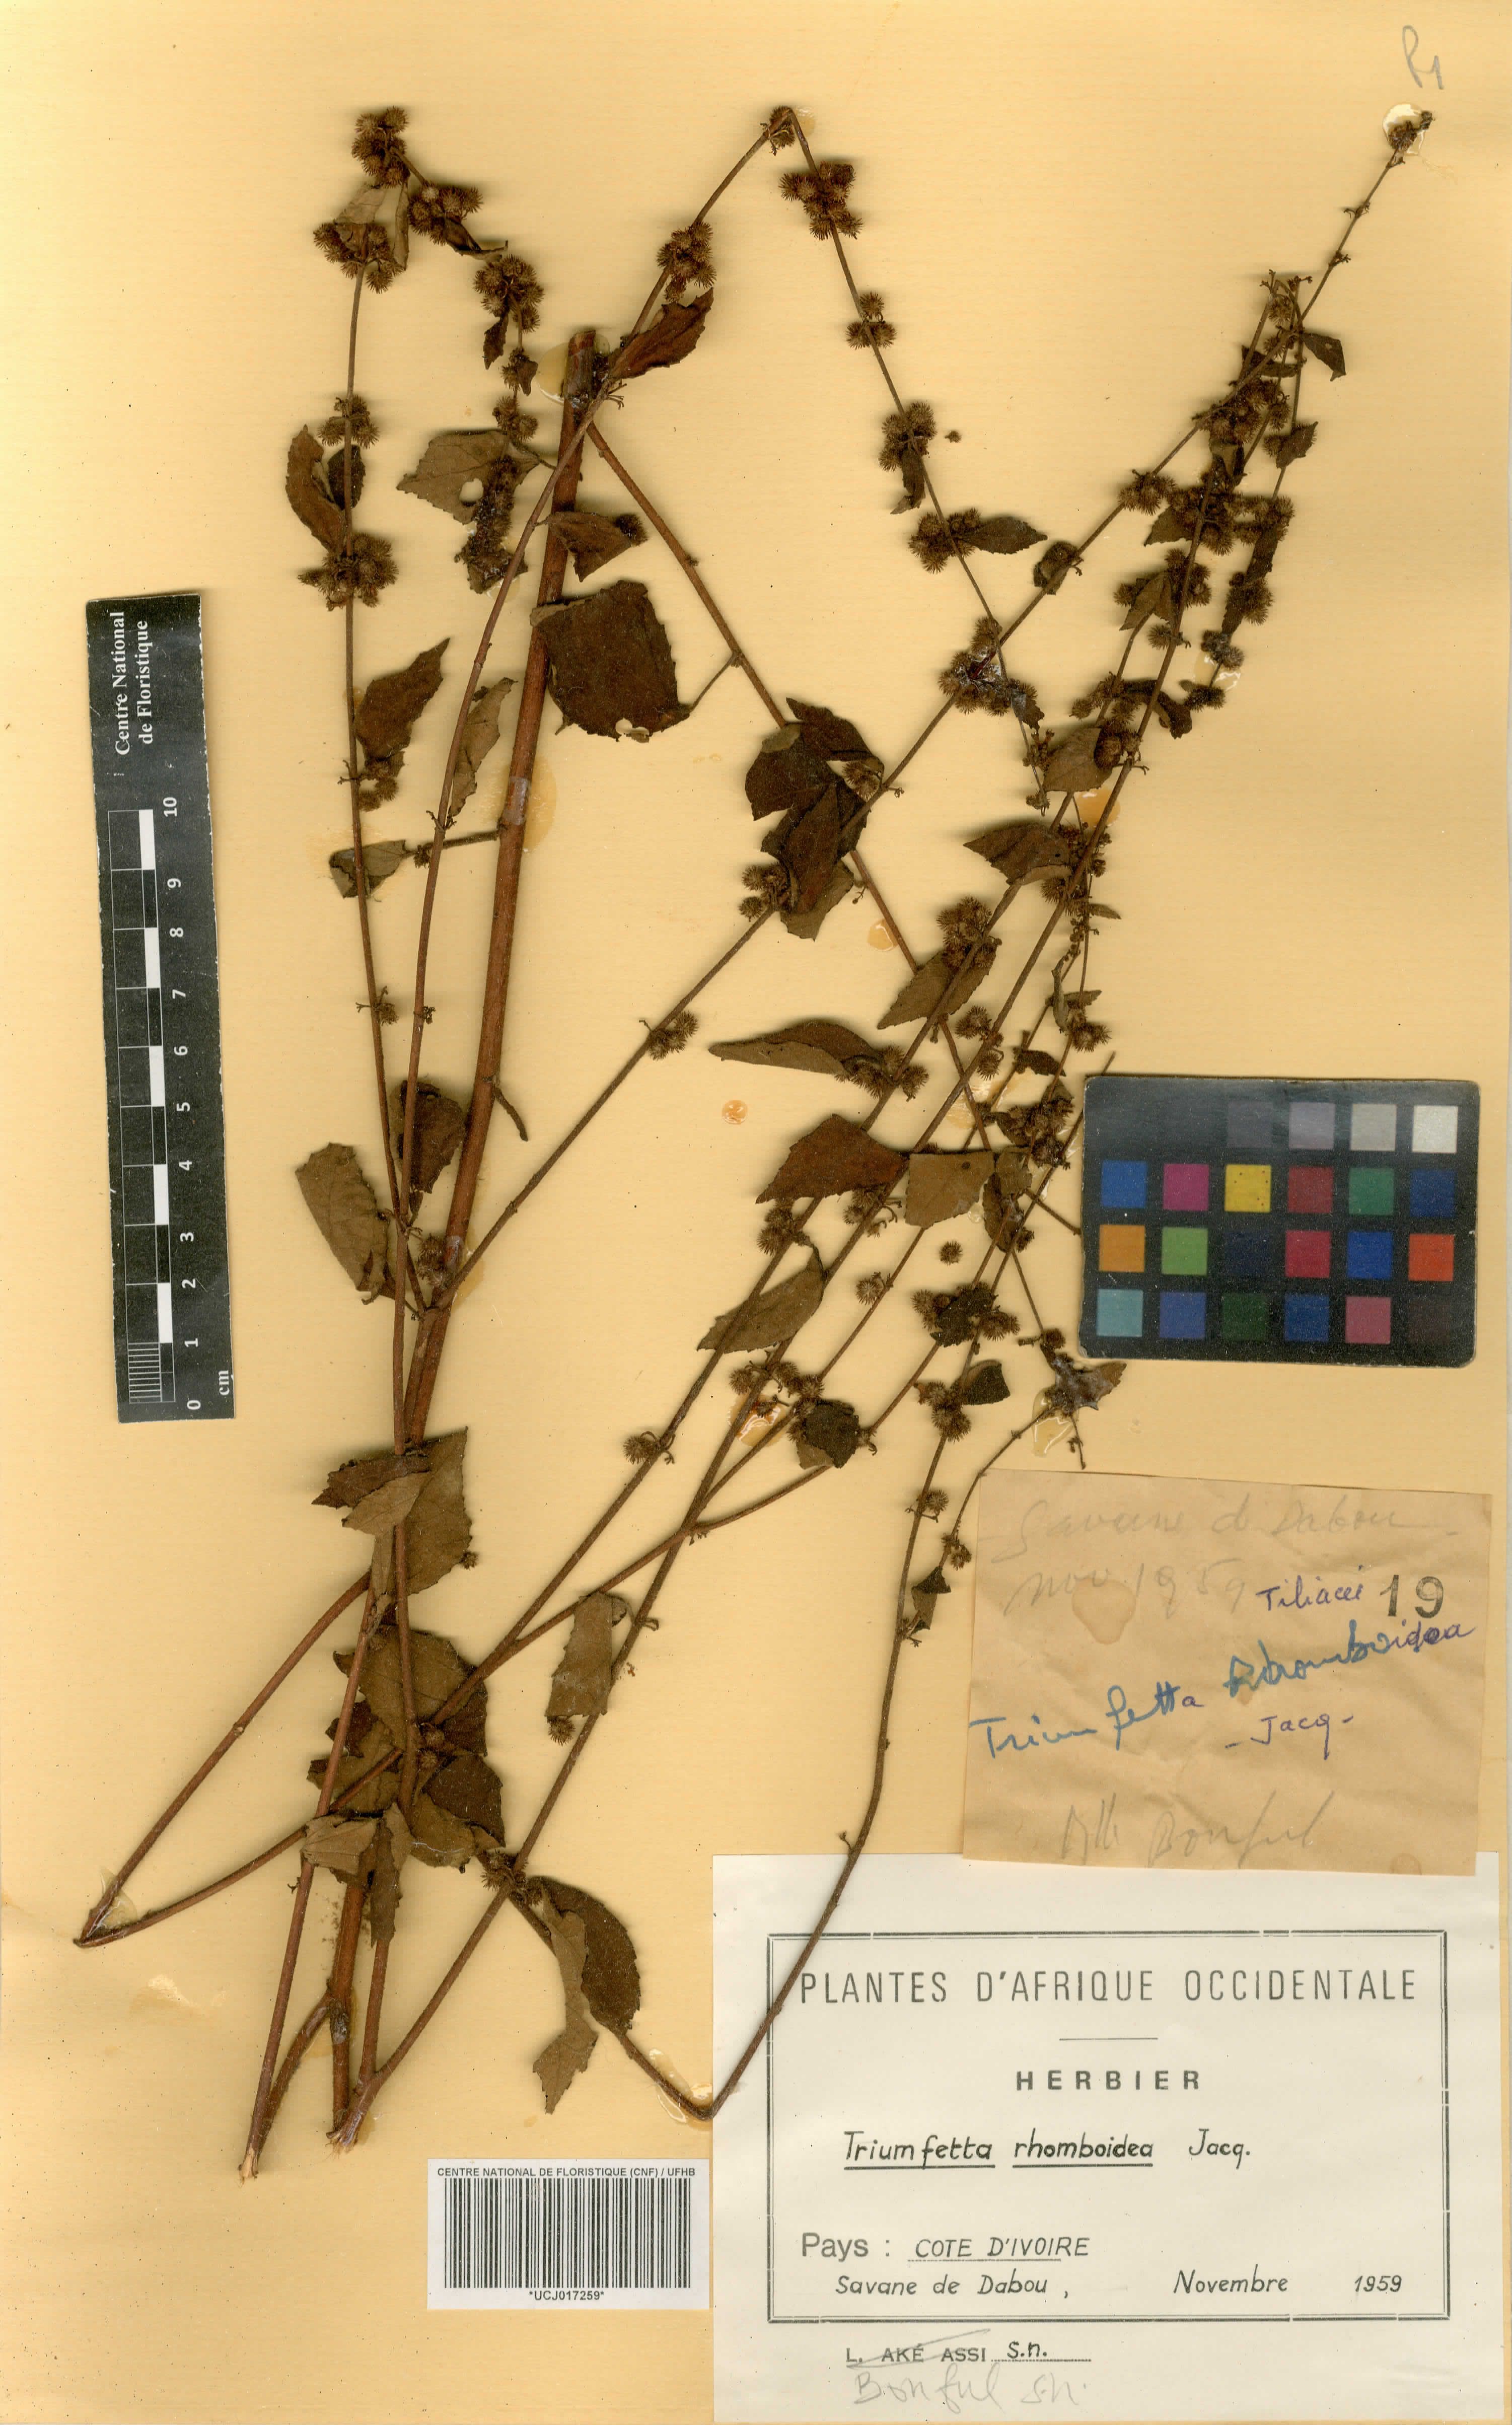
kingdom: Plantae
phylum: Tracheophyta
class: Magnoliopsida
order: Malvales
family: Malvaceae
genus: Triumfetta
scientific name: Triumfetta rhomboidea
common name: Diamond burbark
